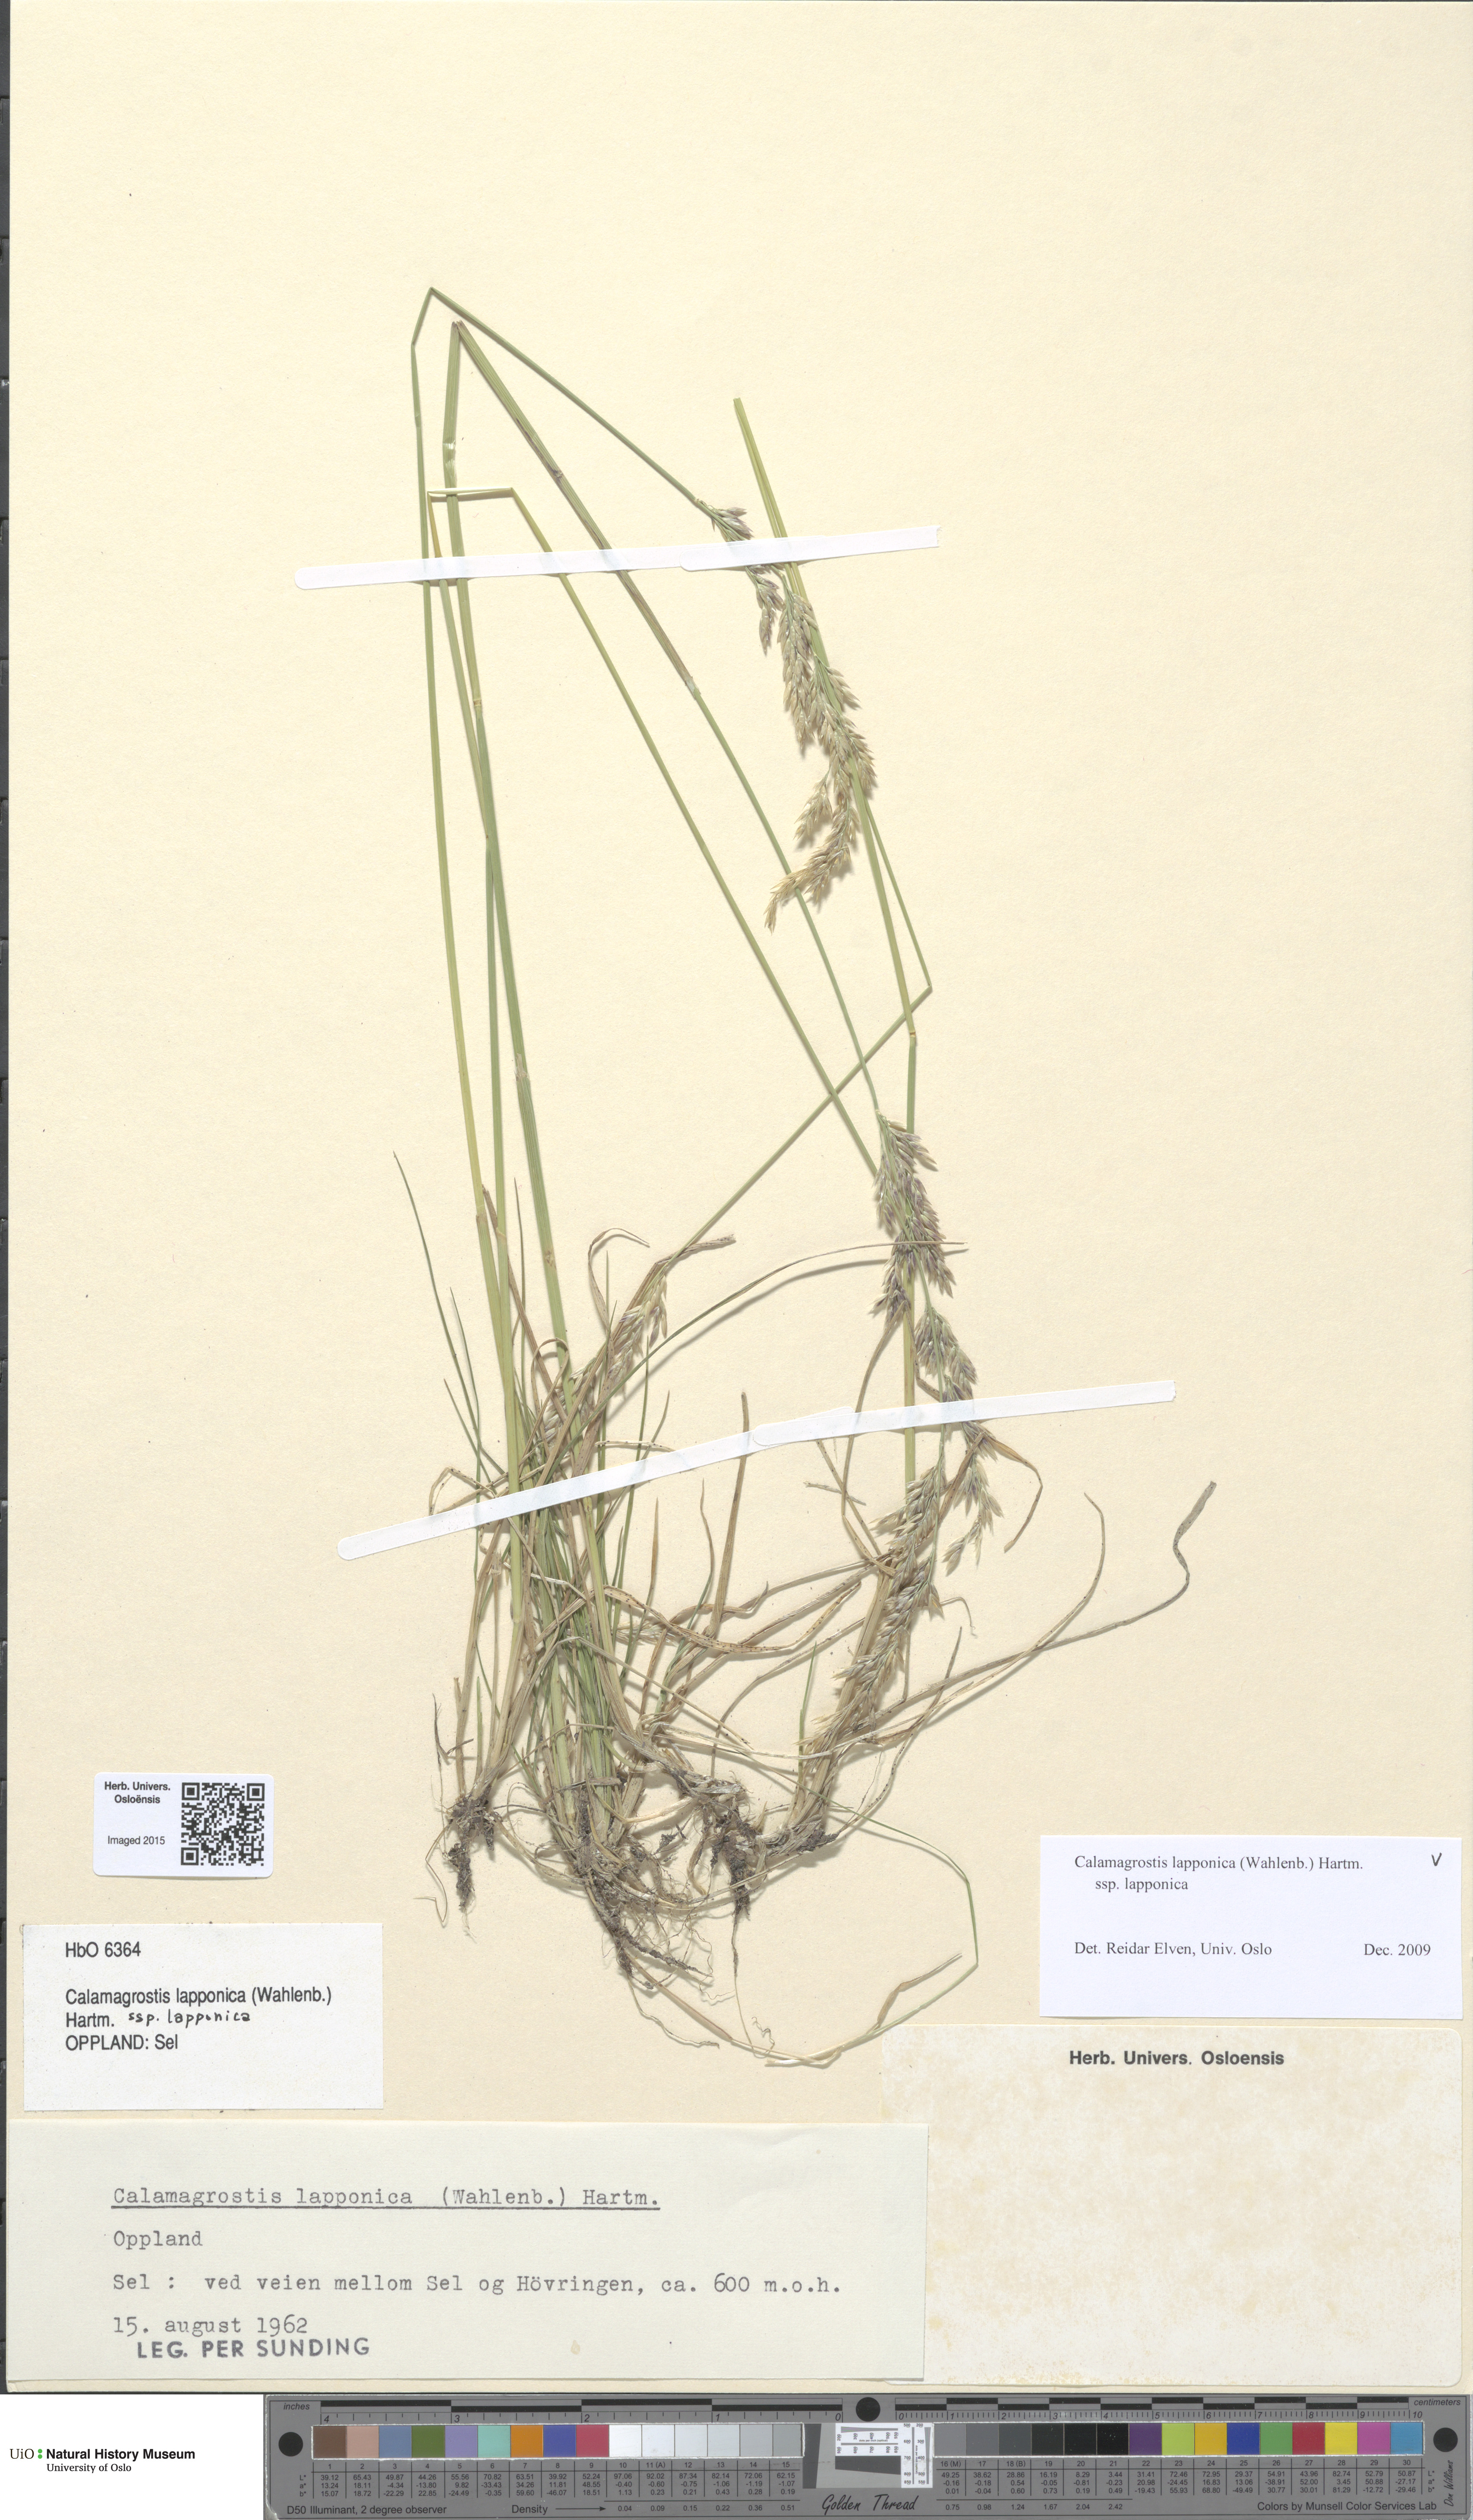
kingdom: Plantae
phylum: Tracheophyta
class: Liliopsida
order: Poales
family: Poaceae
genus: Calamagrostis
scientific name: Calamagrostis lapponica
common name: Lapland reedgrass
